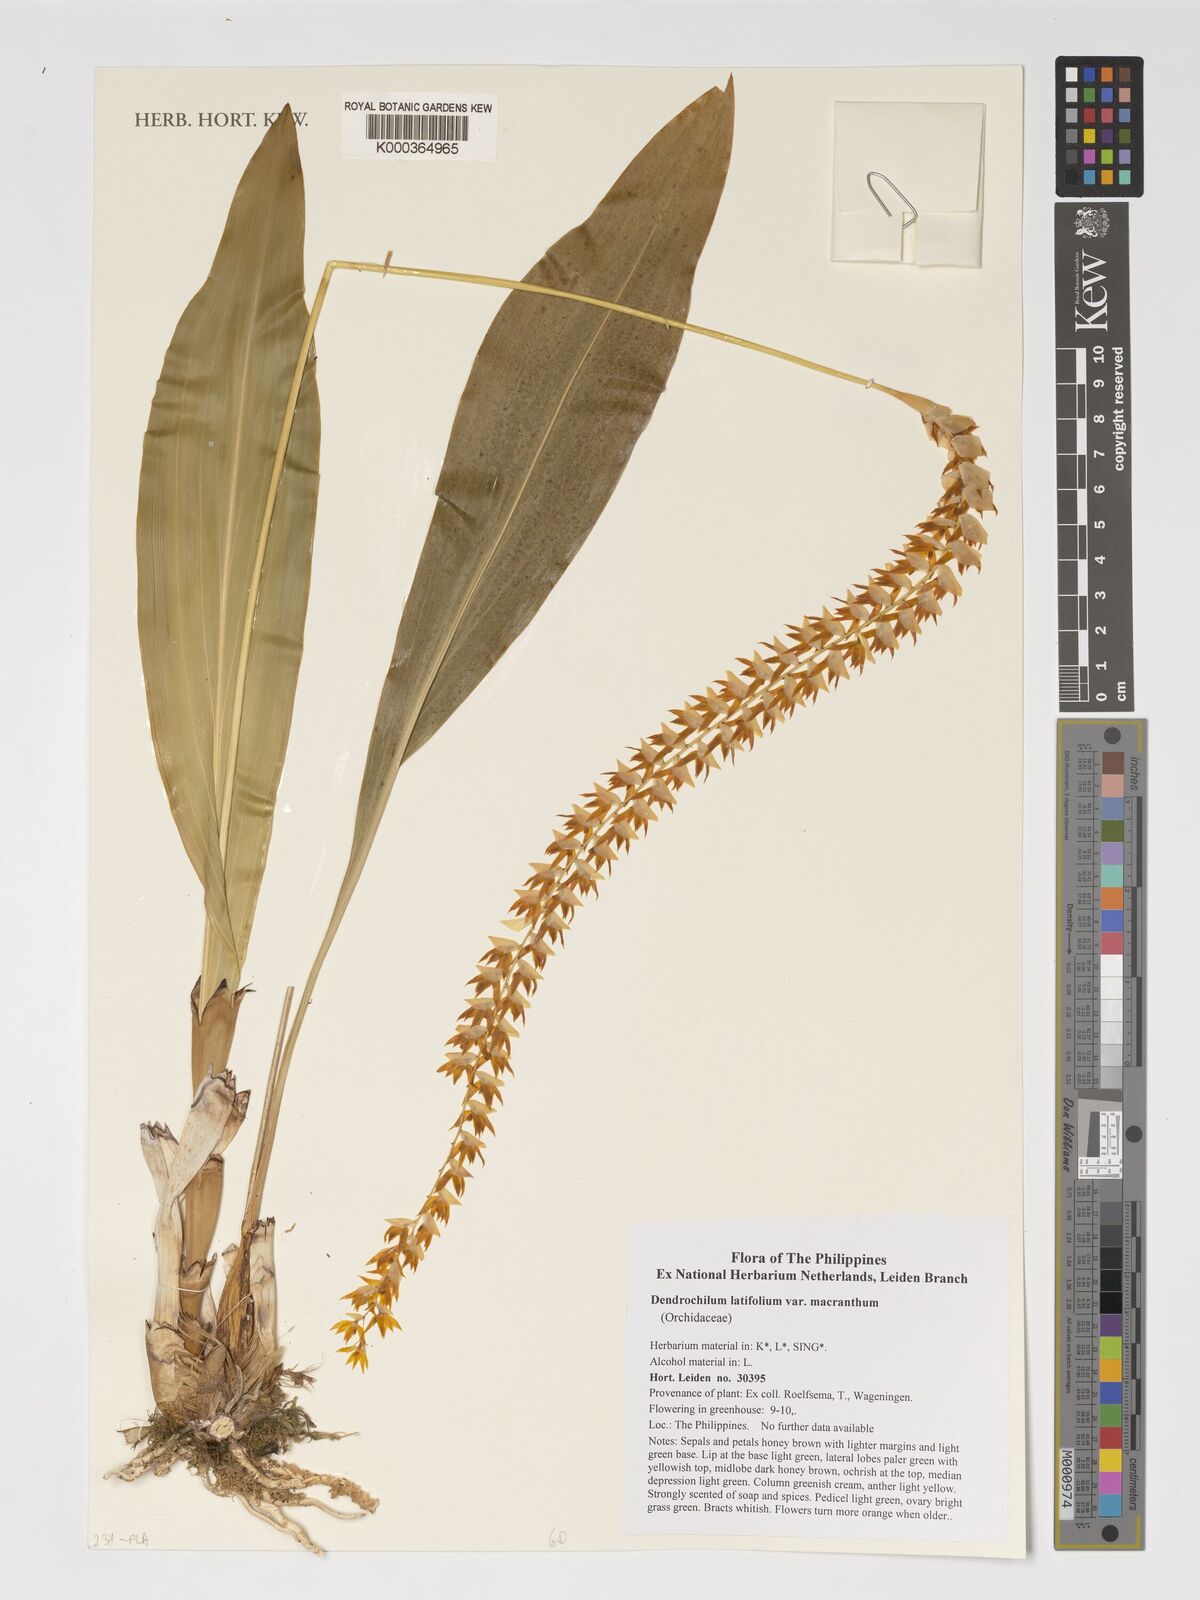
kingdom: Plantae
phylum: Tracheophyta
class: Liliopsida
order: Asparagales
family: Orchidaceae
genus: Coelogyne
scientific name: Coelogyne latifolia
